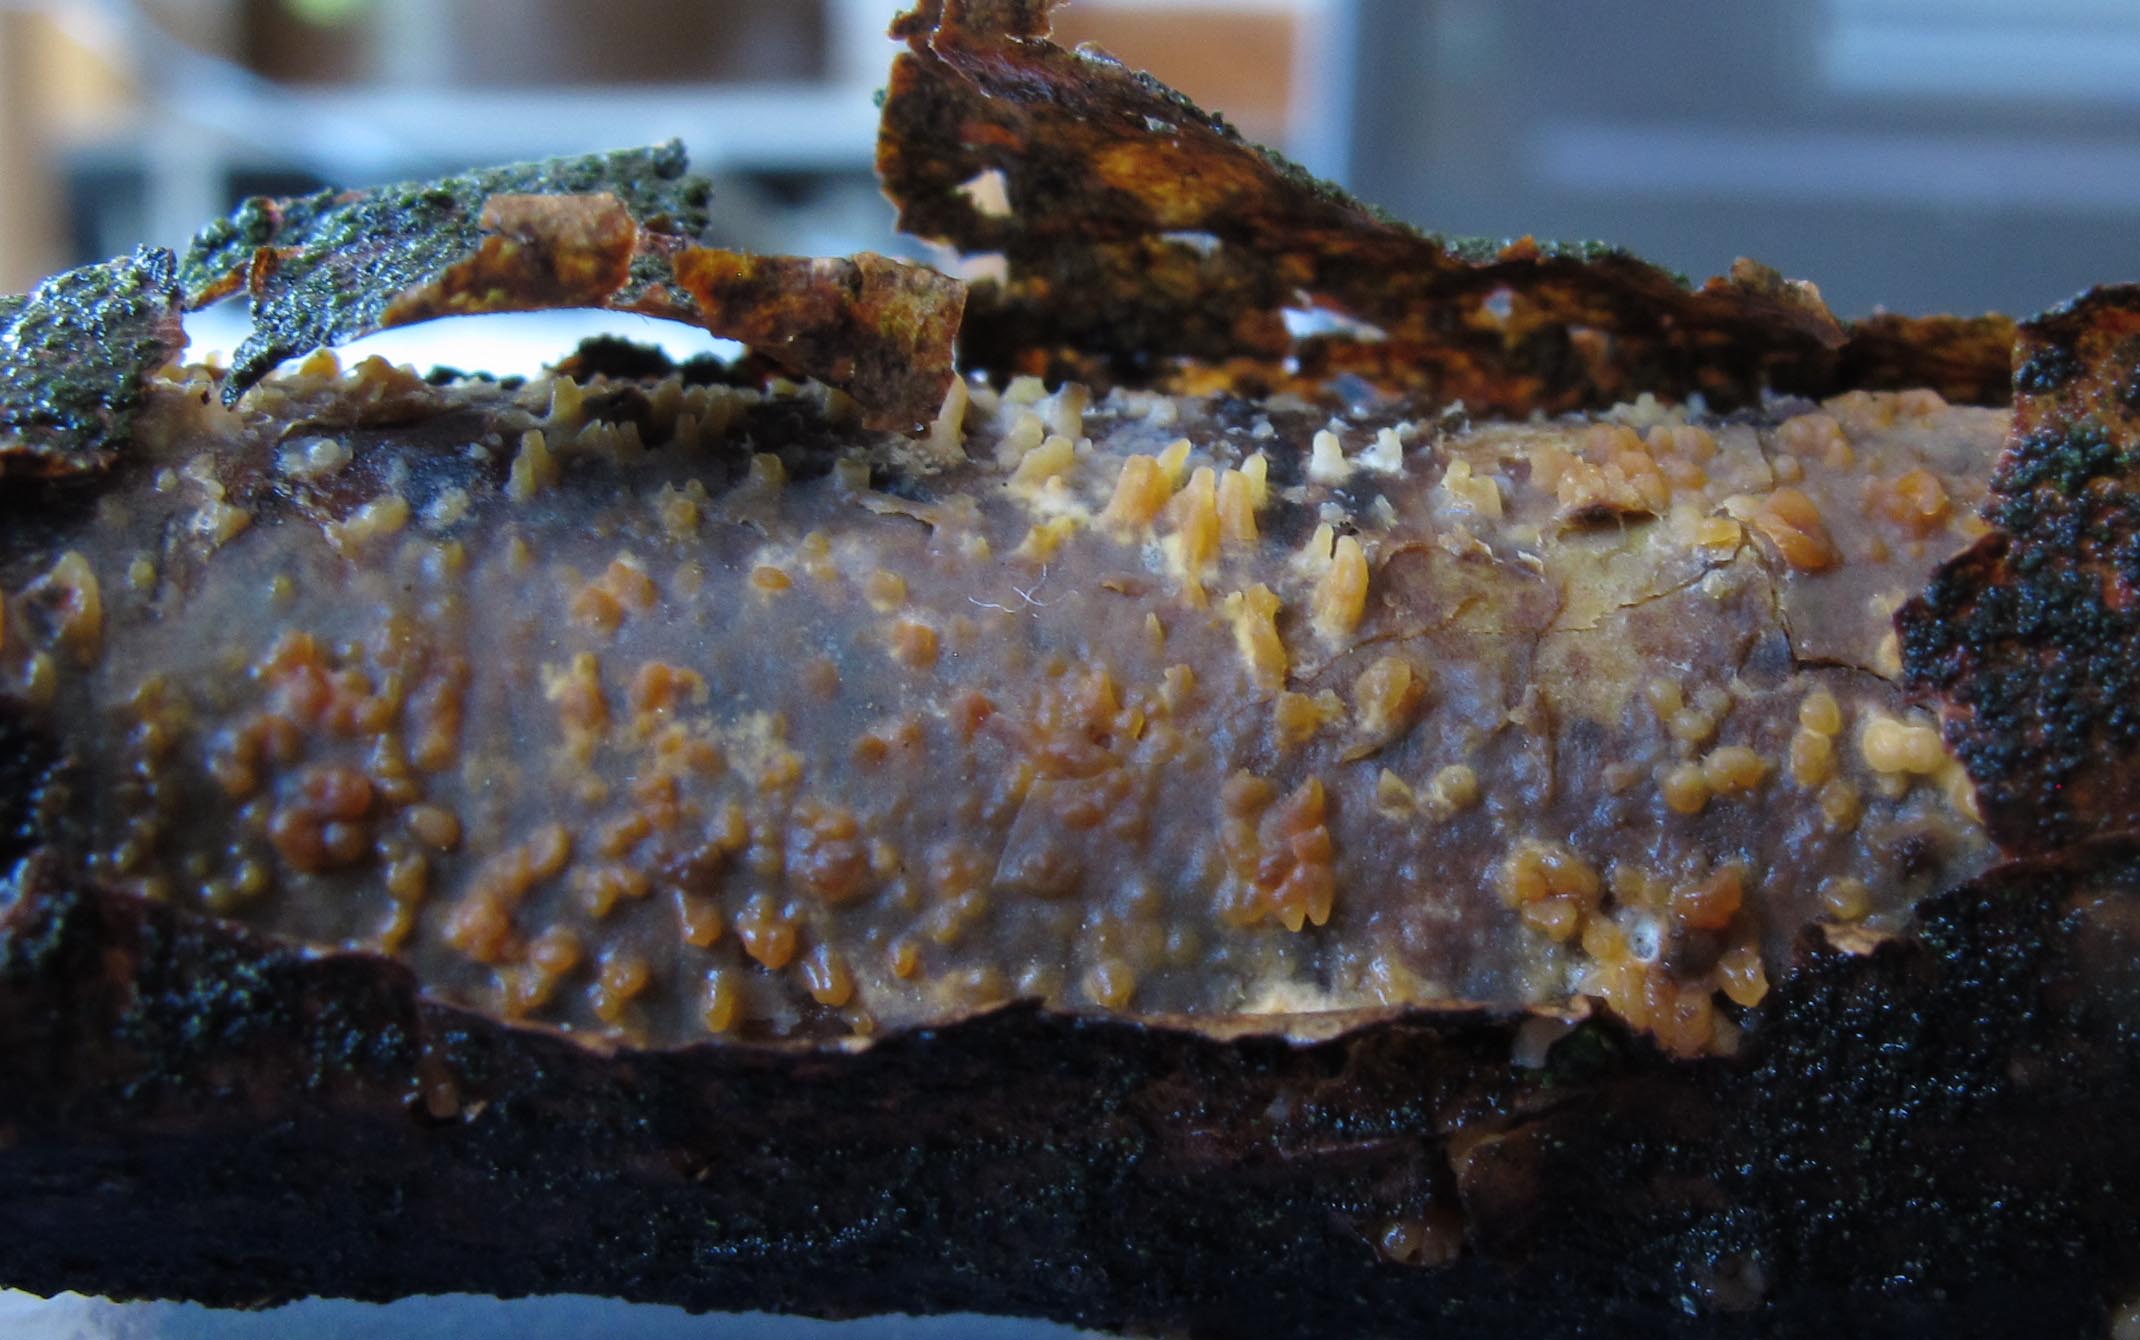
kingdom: Fungi
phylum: Basidiomycota
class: Agaricomycetes
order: Russulales
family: Peniophoraceae
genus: Peniophora
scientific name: Peniophora laeta
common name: tandet voksskind
